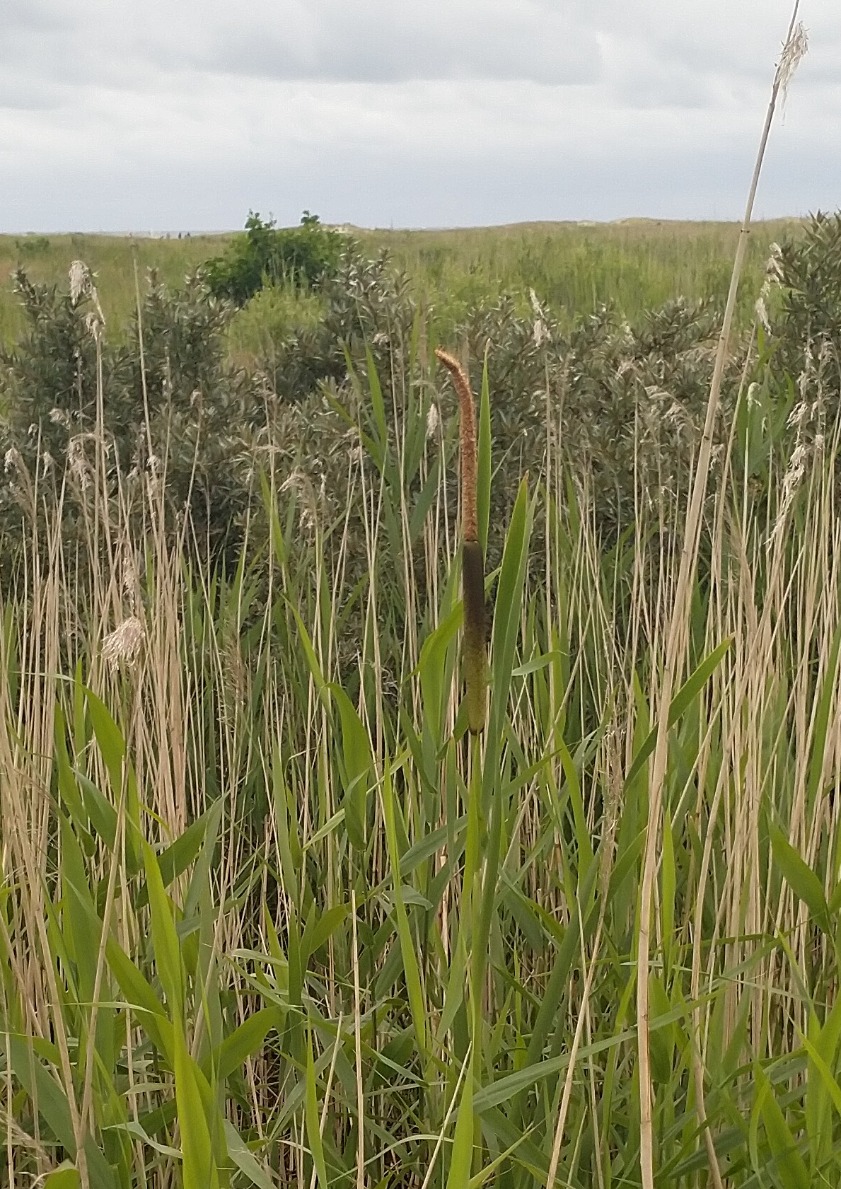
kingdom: Plantae
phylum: Tracheophyta
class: Liliopsida
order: Poales
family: Typhaceae
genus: Typha
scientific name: Typha latifolia
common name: Bredbladet dunhammer
